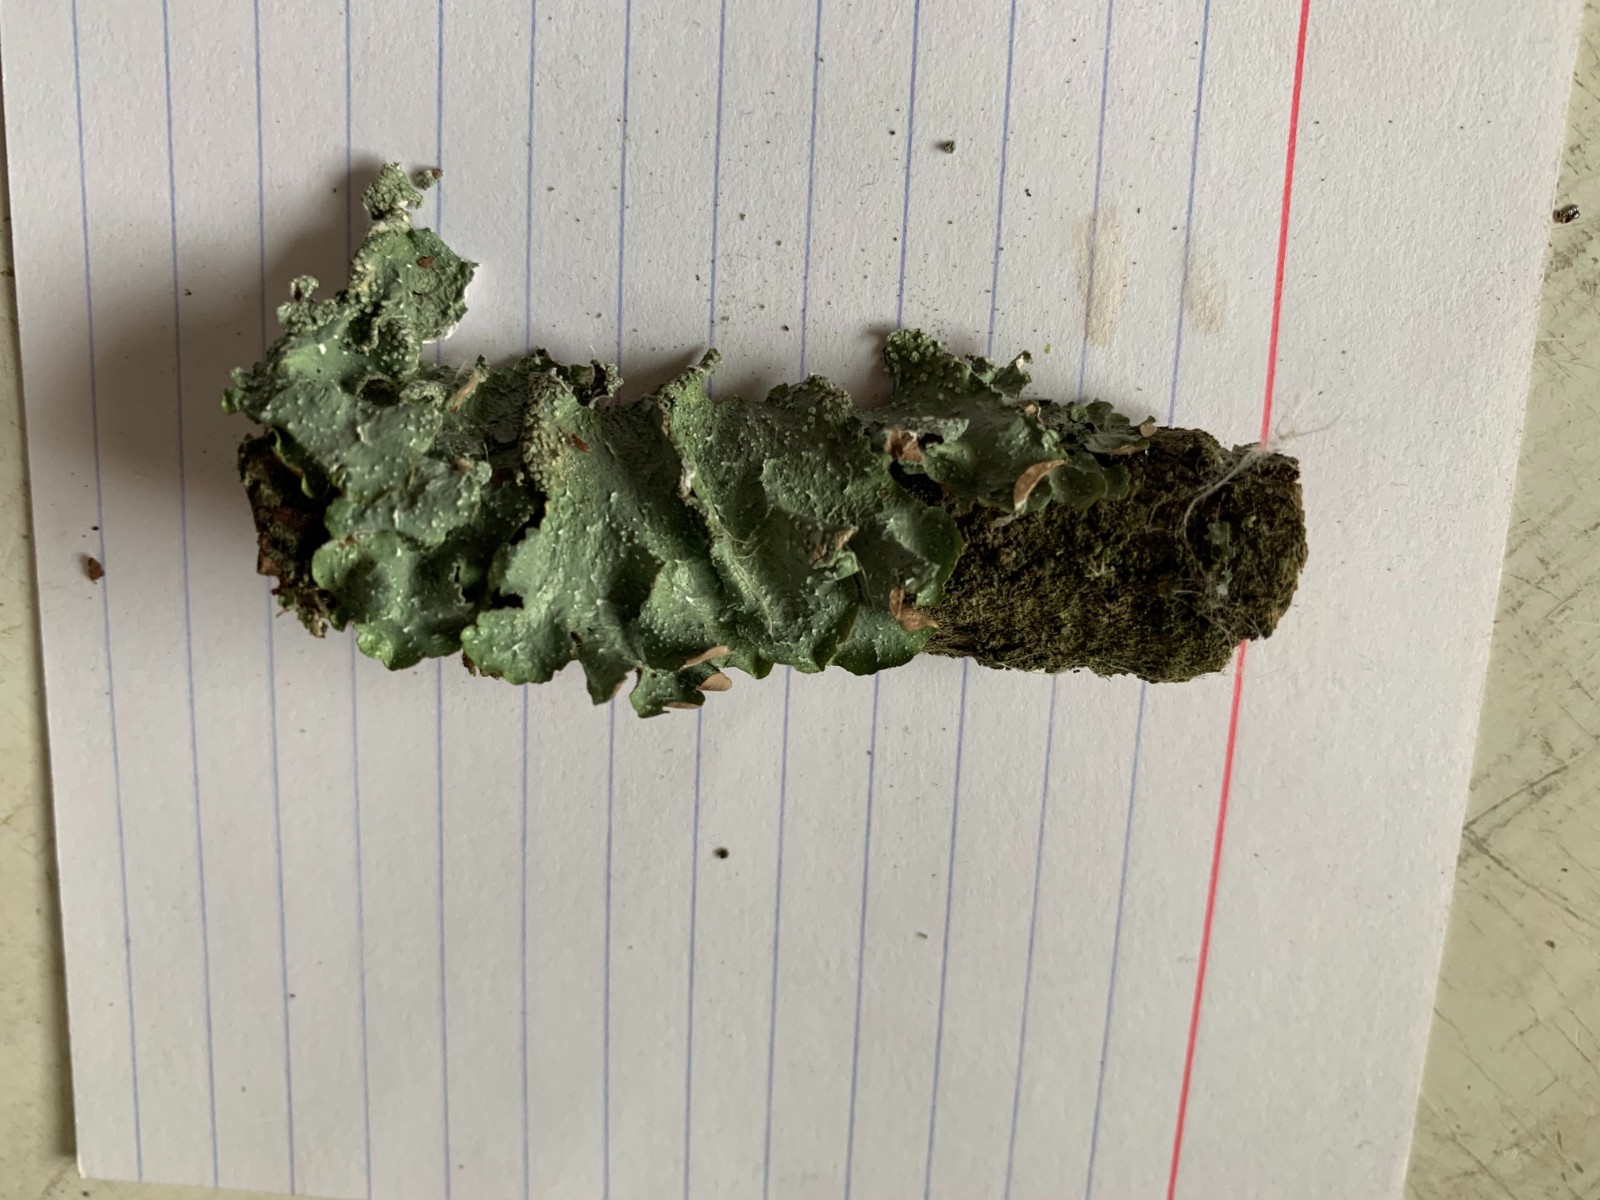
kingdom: Fungi
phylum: Ascomycota
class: Lecanoromycetes
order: Lecanorales
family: Parmeliaceae
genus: Punctelia
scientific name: Punctelia subrudecta
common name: punkt-skållav
